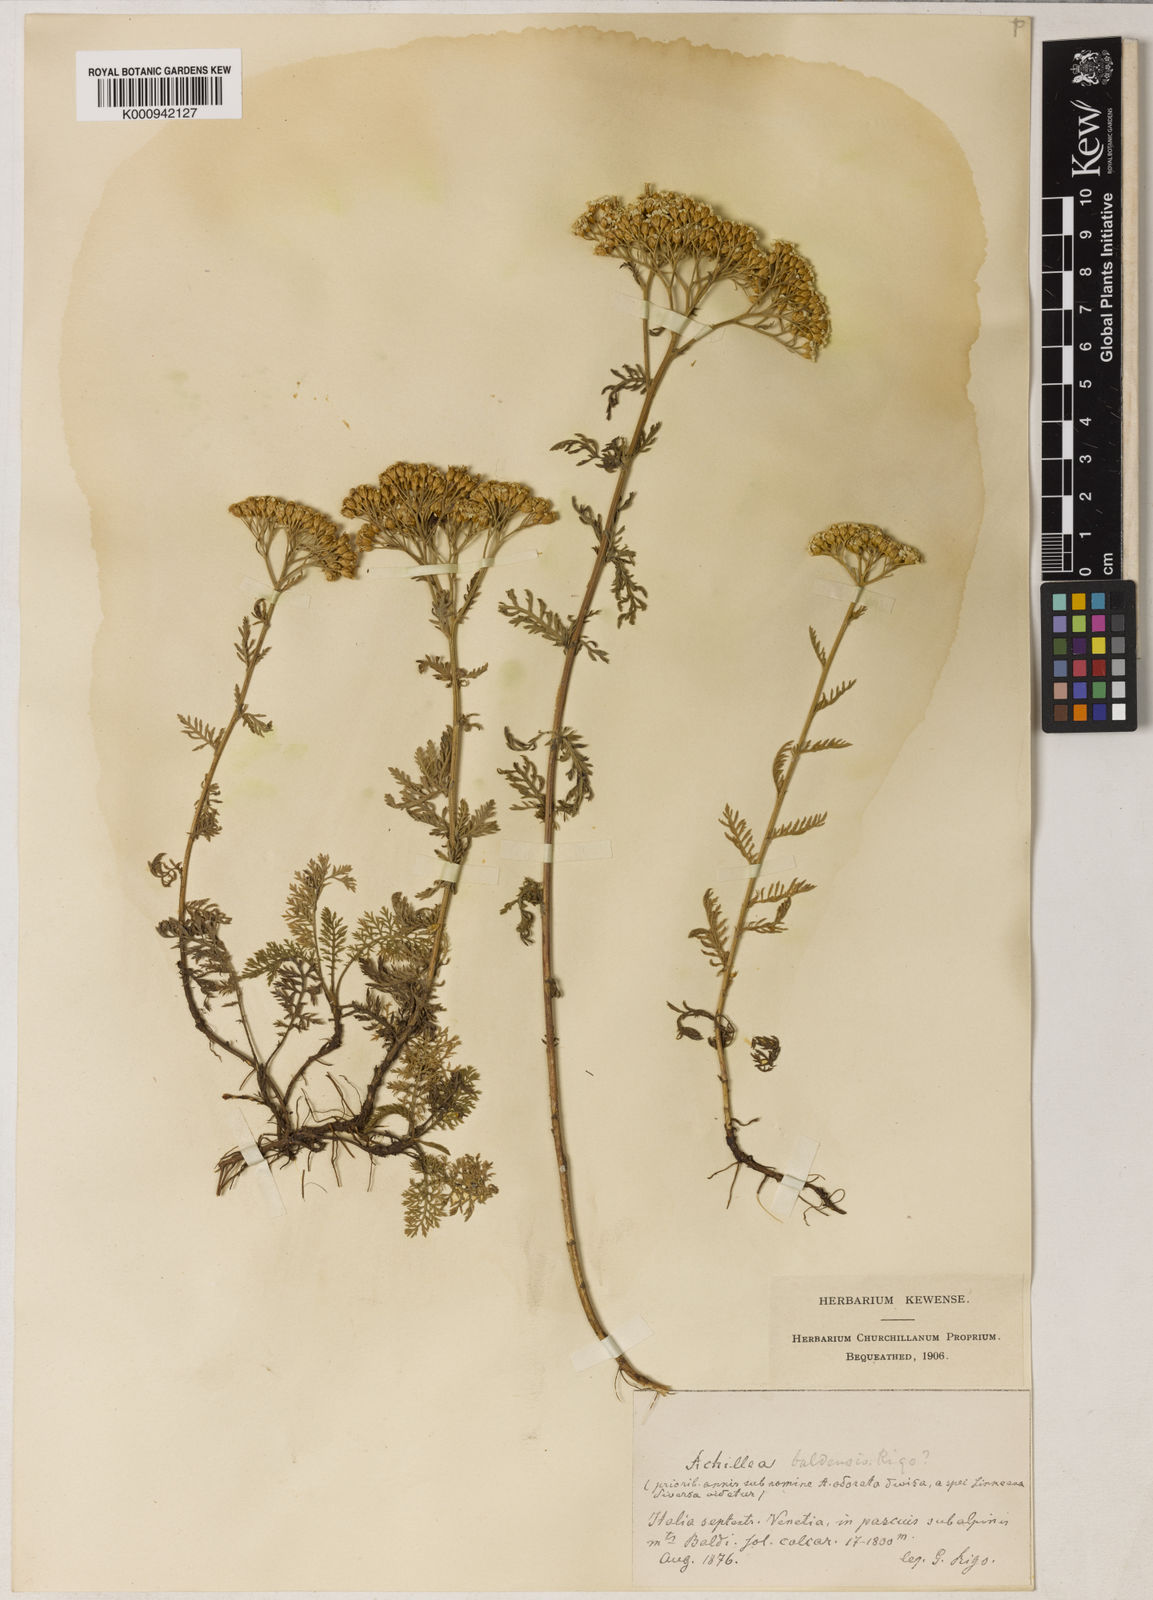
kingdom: Plantae
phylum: Tracheophyta
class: Magnoliopsida
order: Asterales
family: Asteraceae
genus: Achillea
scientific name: Achillea
